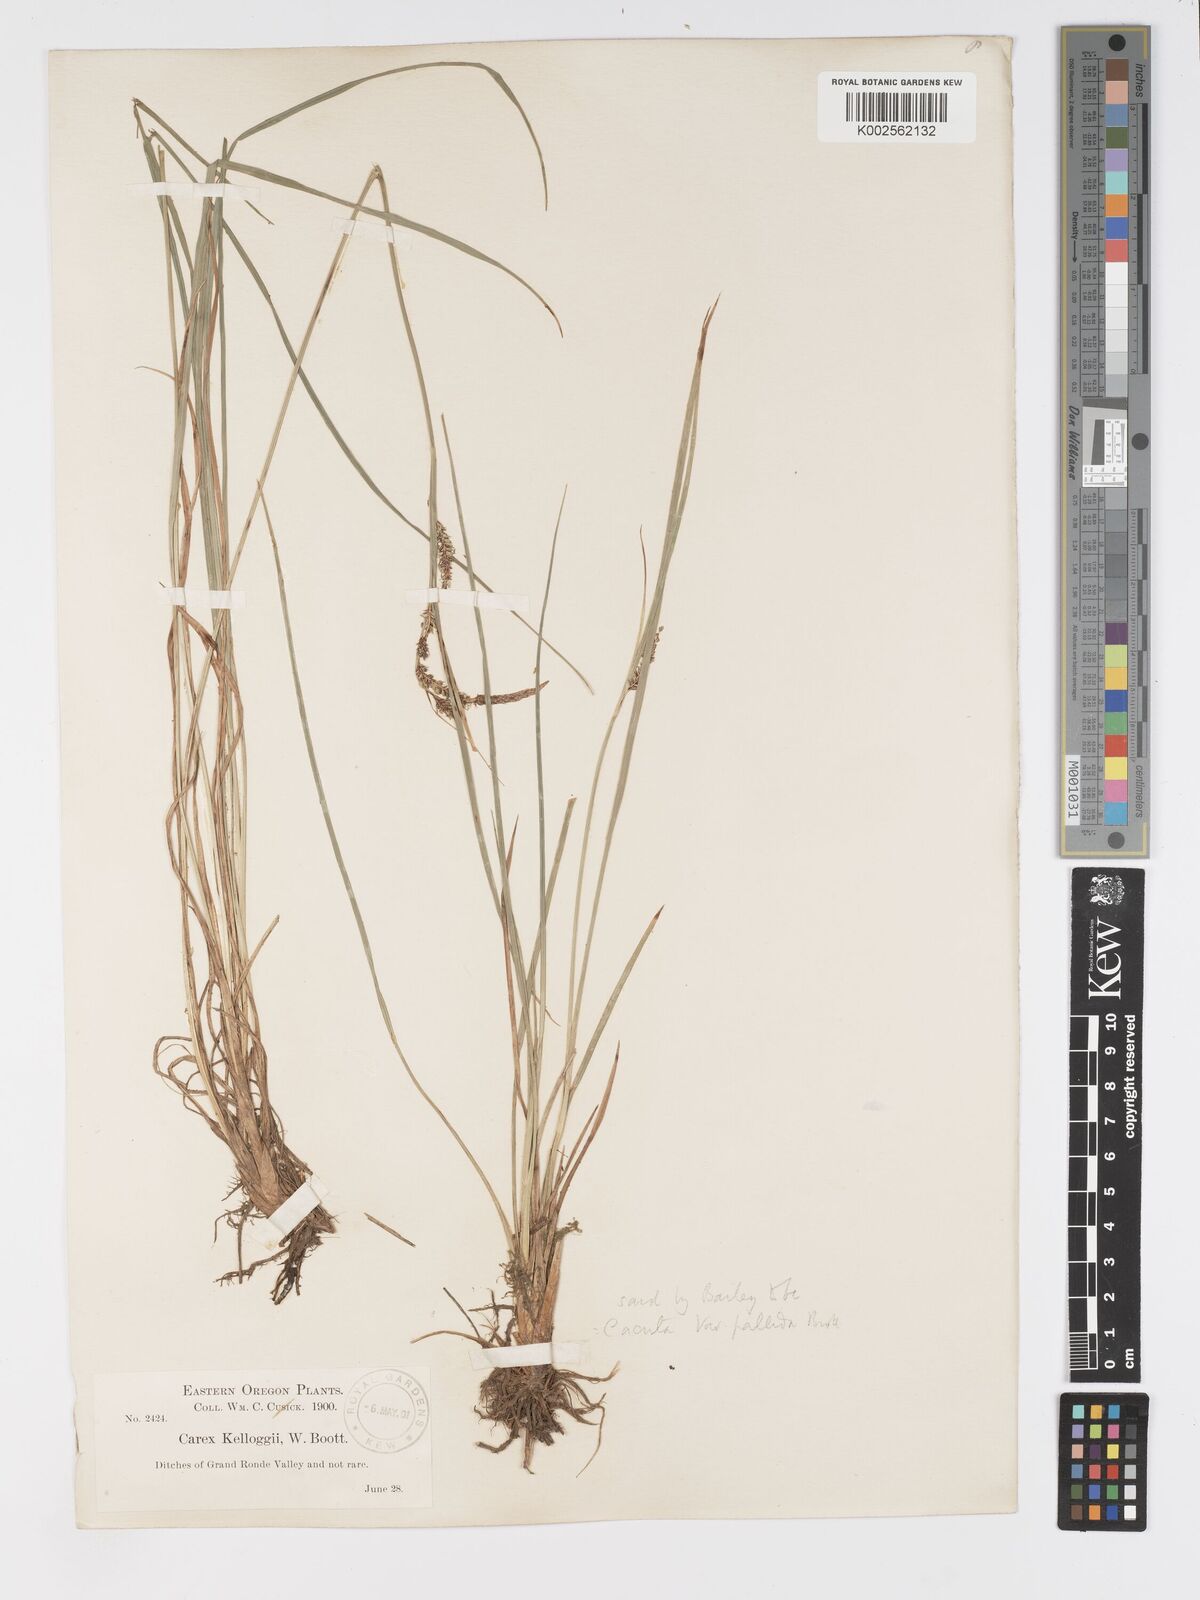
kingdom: Plantae
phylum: Tracheophyta
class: Liliopsida
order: Poales
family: Cyperaceae
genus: Carex
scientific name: Carex kelloggii
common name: Kellogg's sedge
